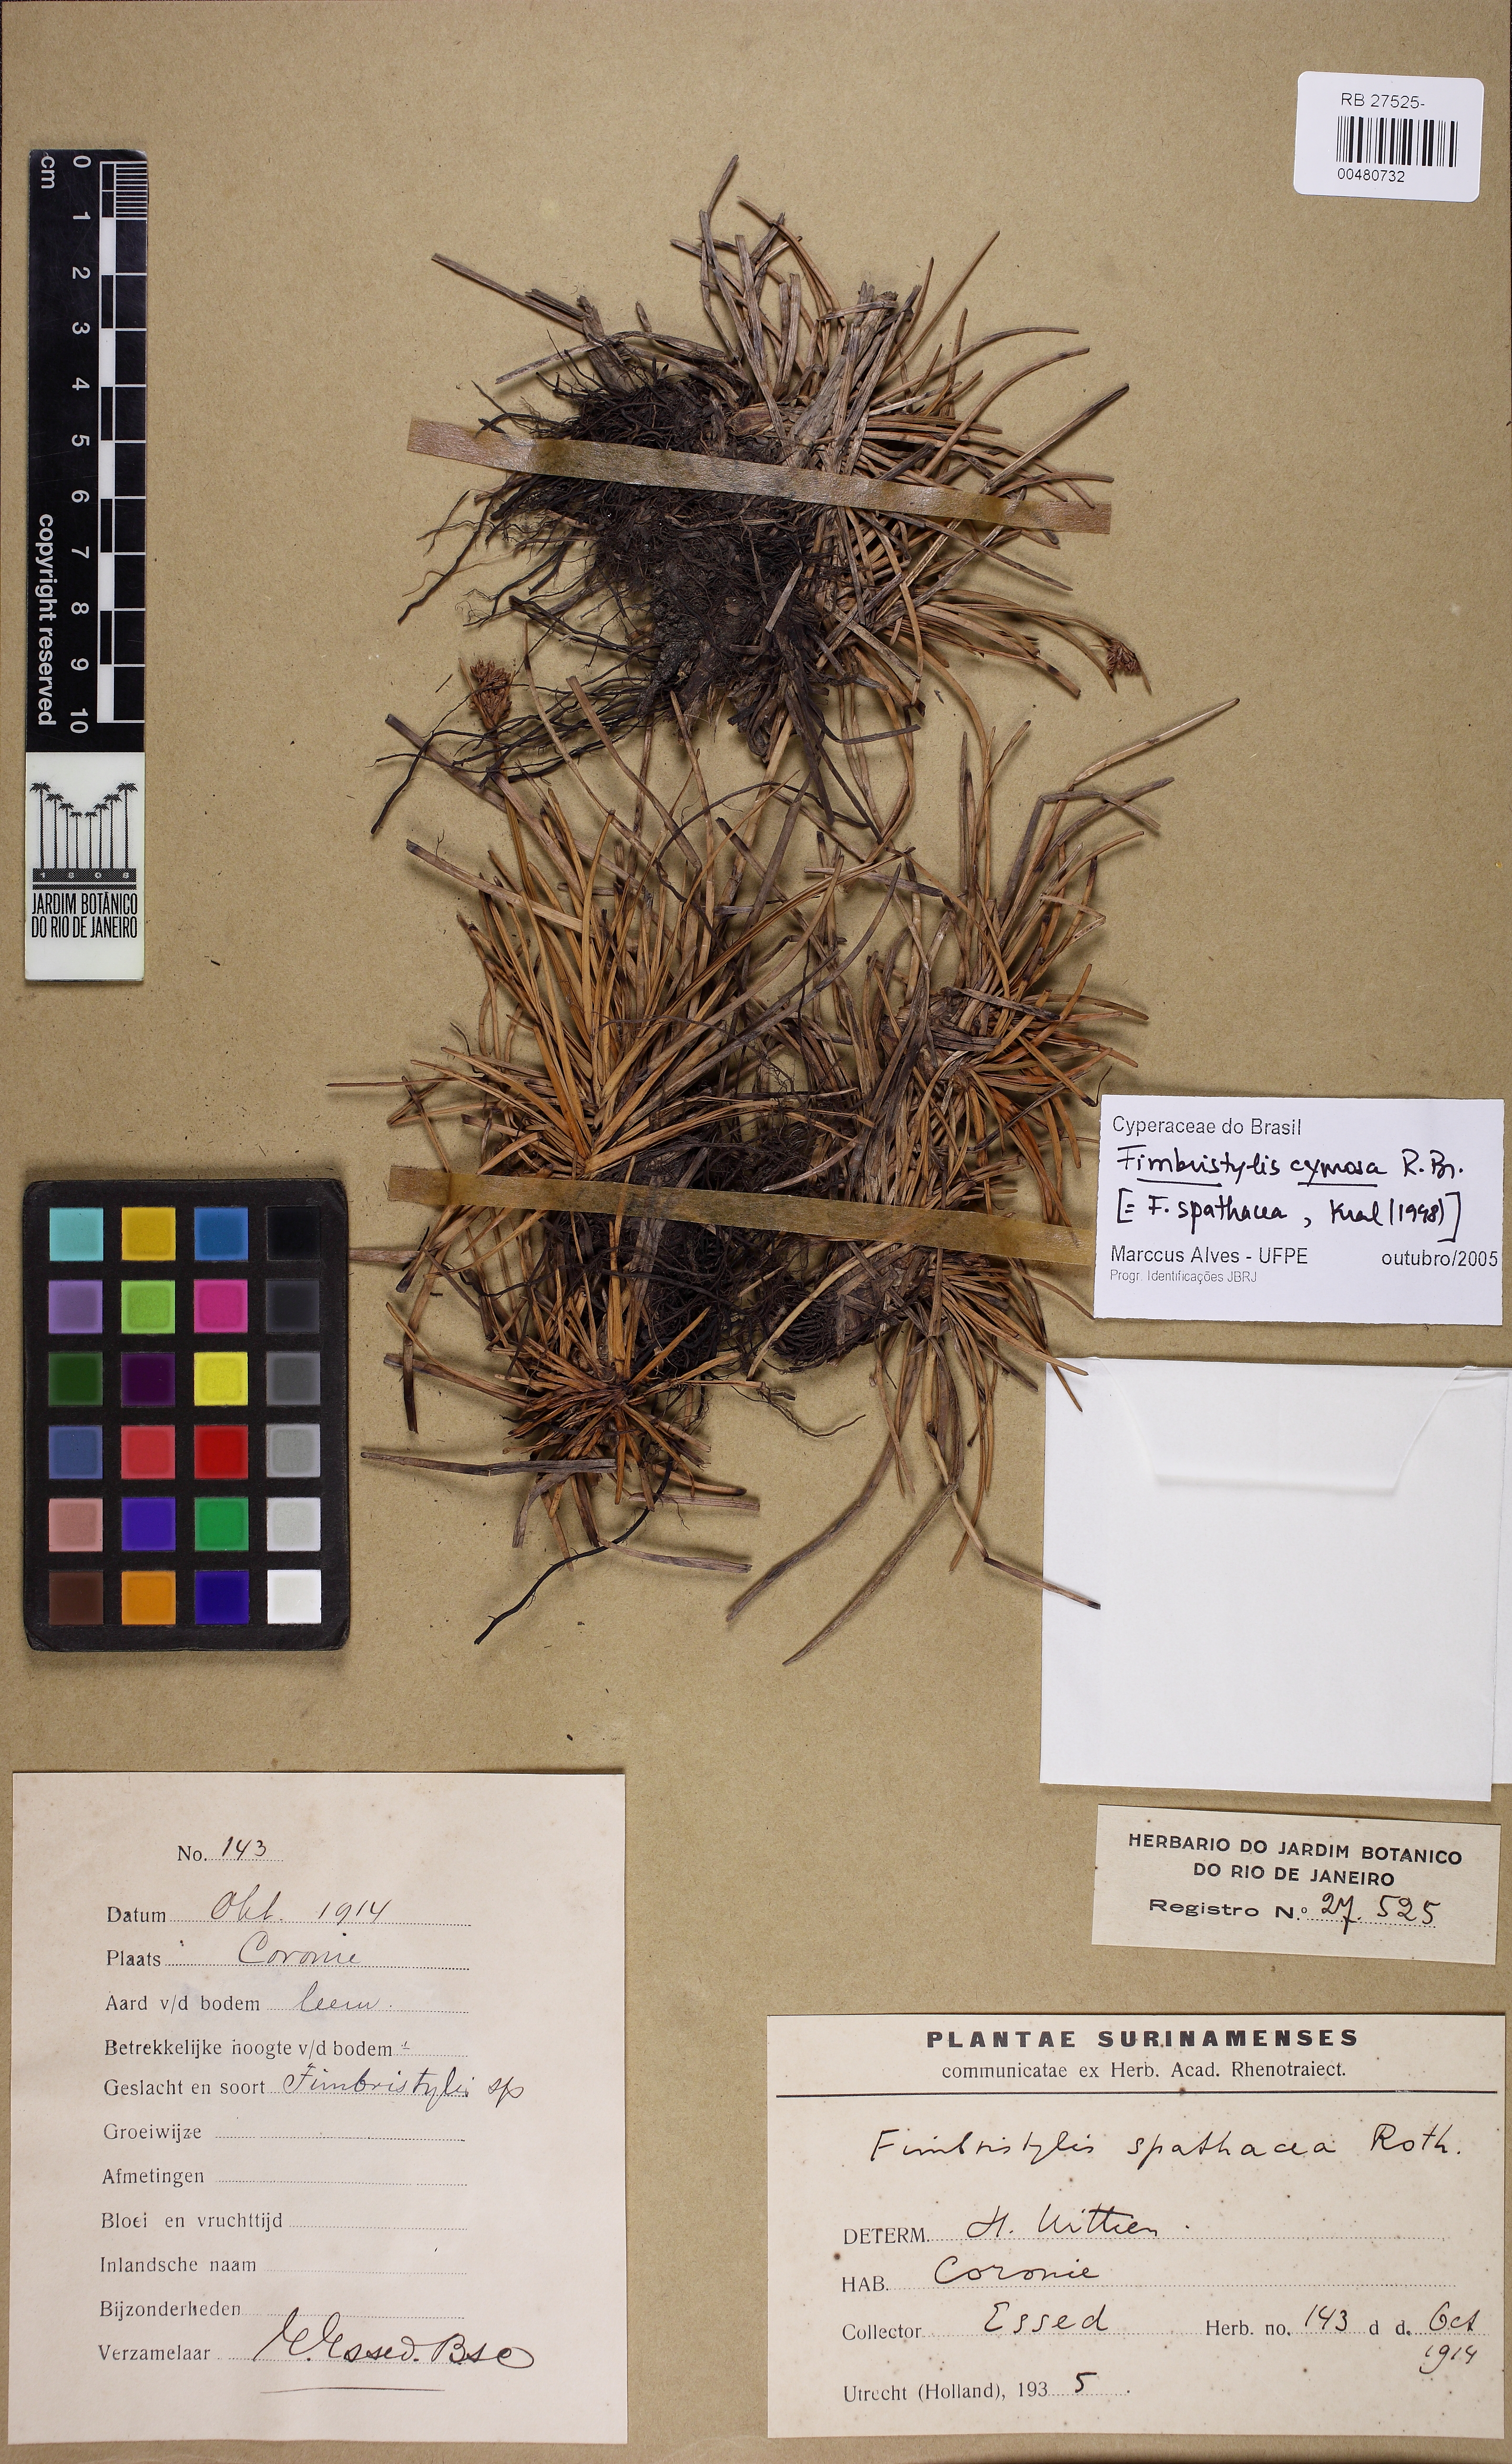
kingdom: Plantae
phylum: Tracheophyta
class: Liliopsida
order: Poales
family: Cyperaceae
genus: Fimbristylis
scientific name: Fimbristylis cymosa
